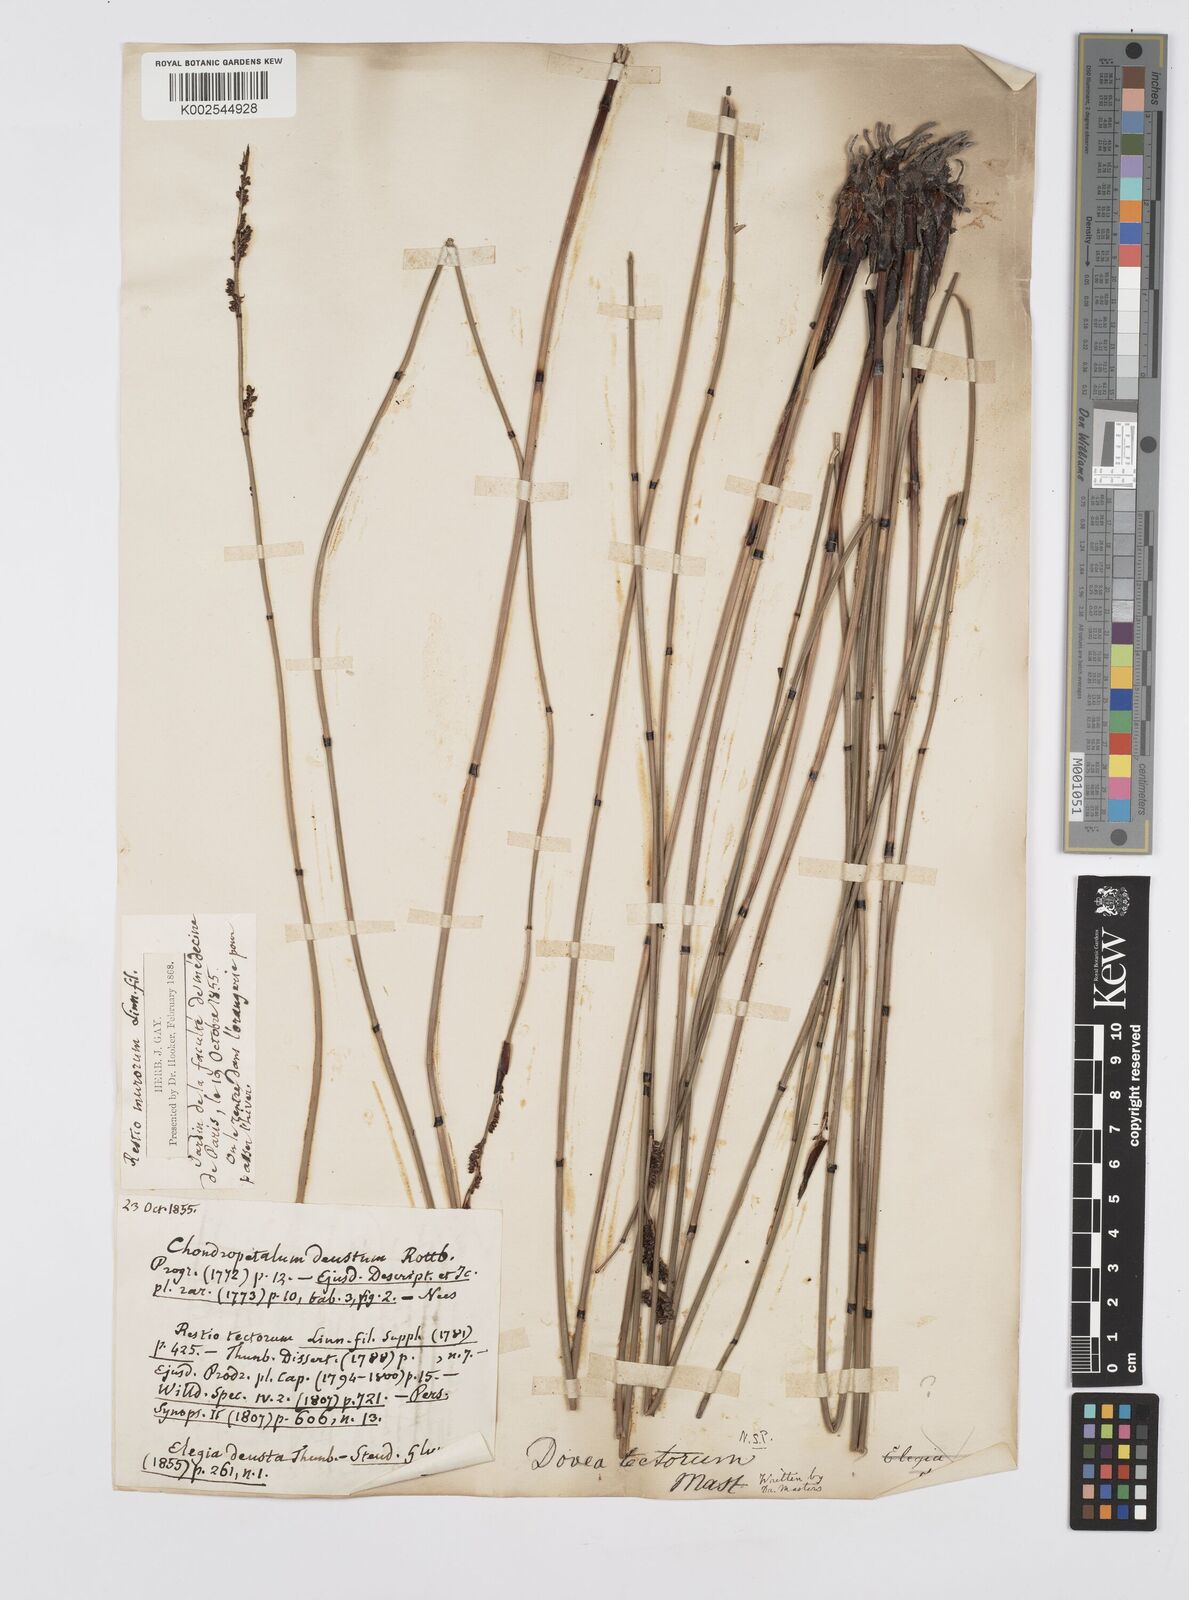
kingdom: Plantae
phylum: Tracheophyta
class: Liliopsida
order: Poales
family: Restionaceae
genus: Elegia
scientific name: Elegia tectorum
